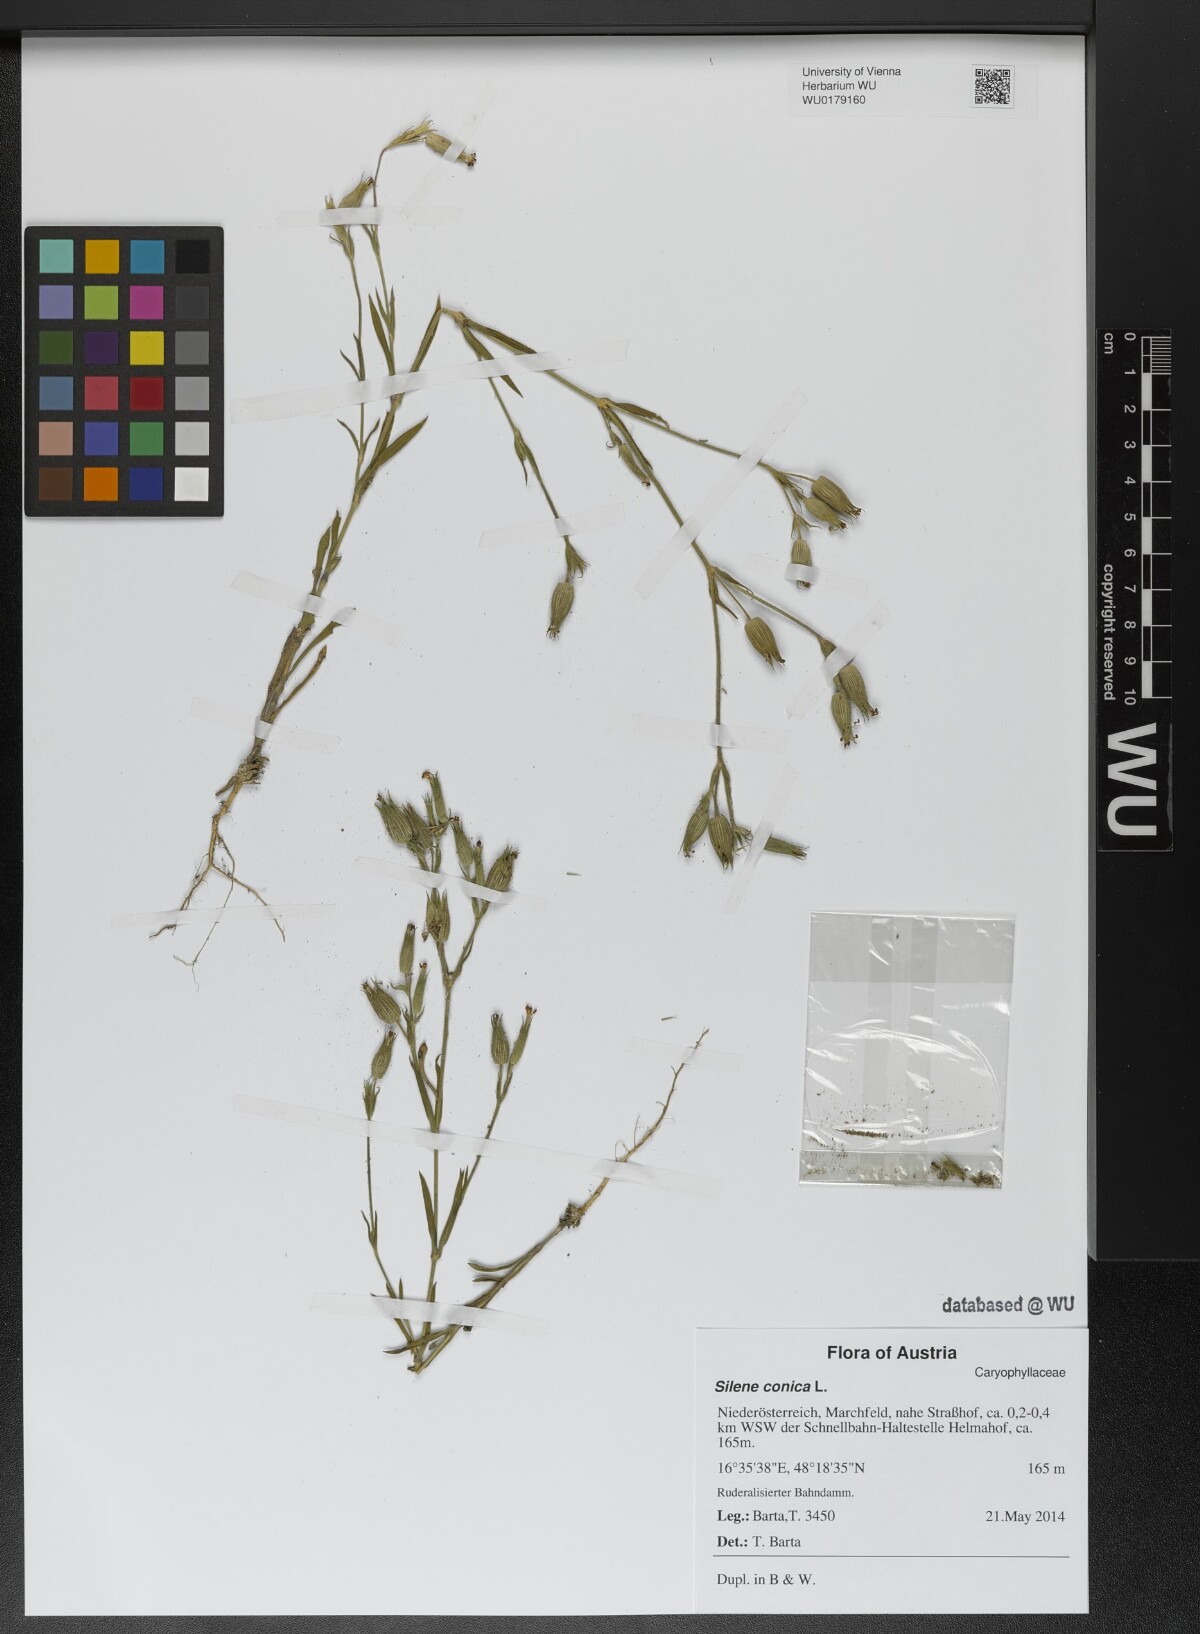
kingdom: Plantae
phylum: Tracheophyta
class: Magnoliopsida
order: Caryophyllales
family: Caryophyllaceae
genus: Silene
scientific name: Silene conica
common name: Sand catchfly
